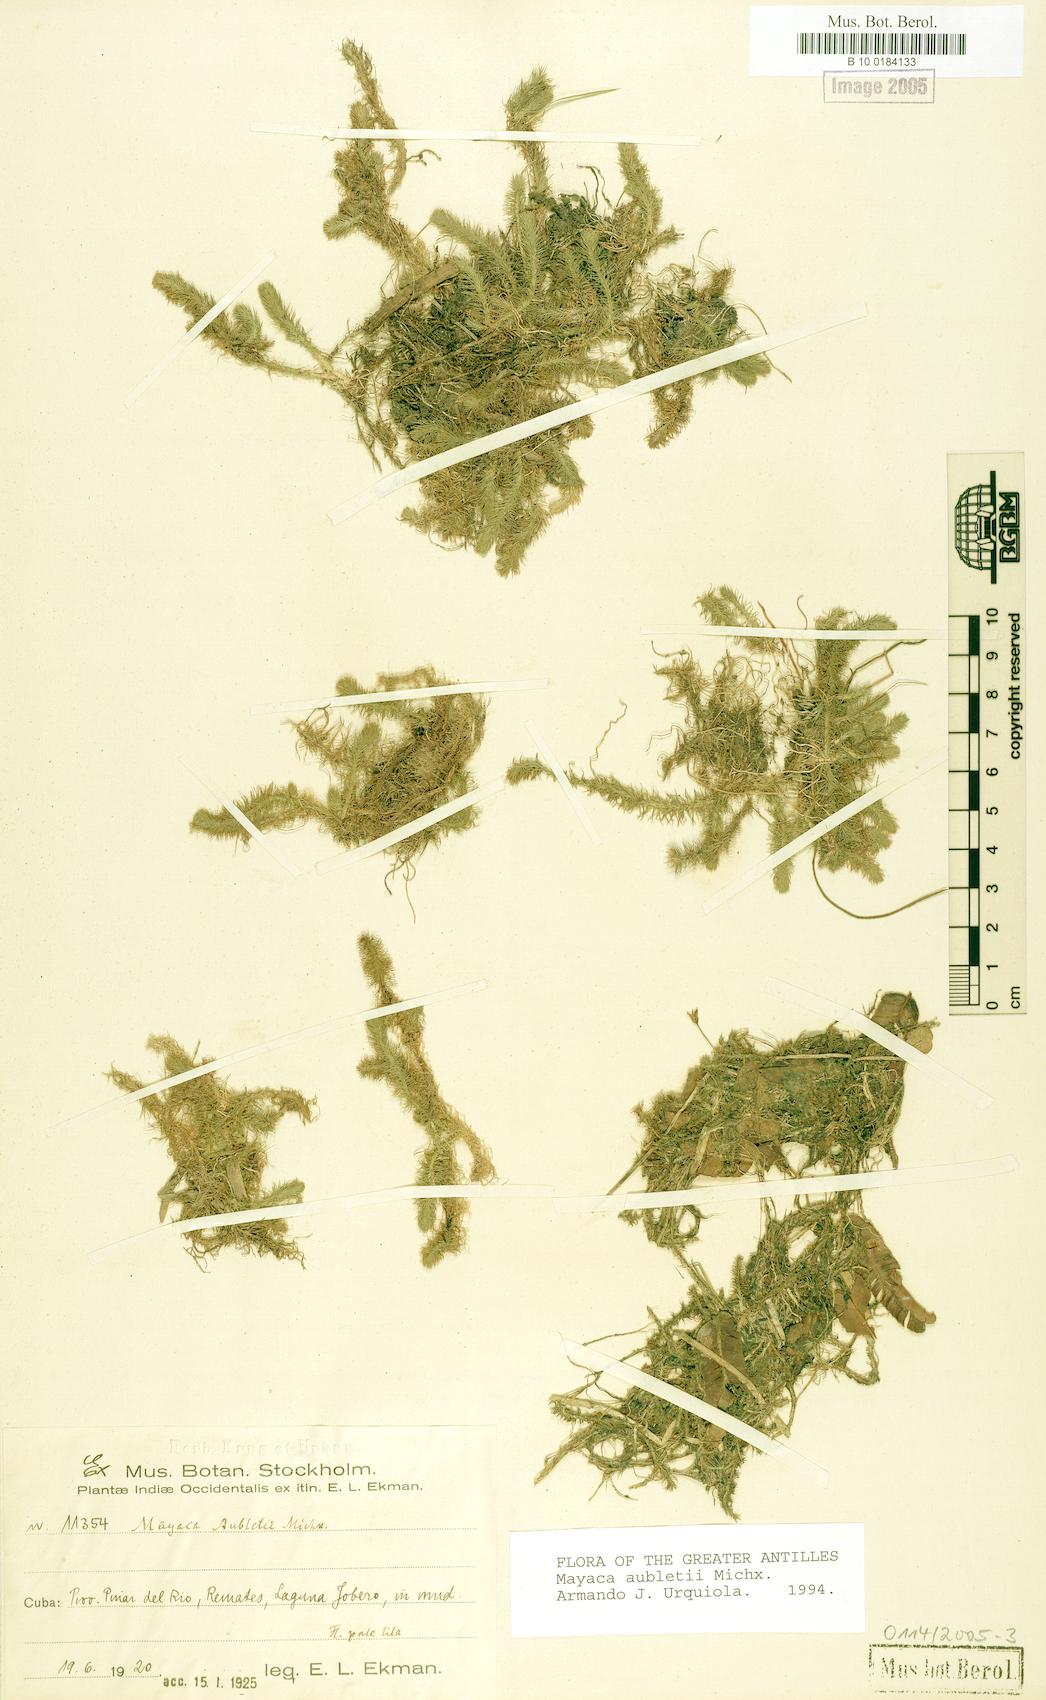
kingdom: Plantae
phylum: Tracheophyta
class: Liliopsida
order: Poales
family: Mayacaceae
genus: Mayaca
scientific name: Mayaca fluviatilis
